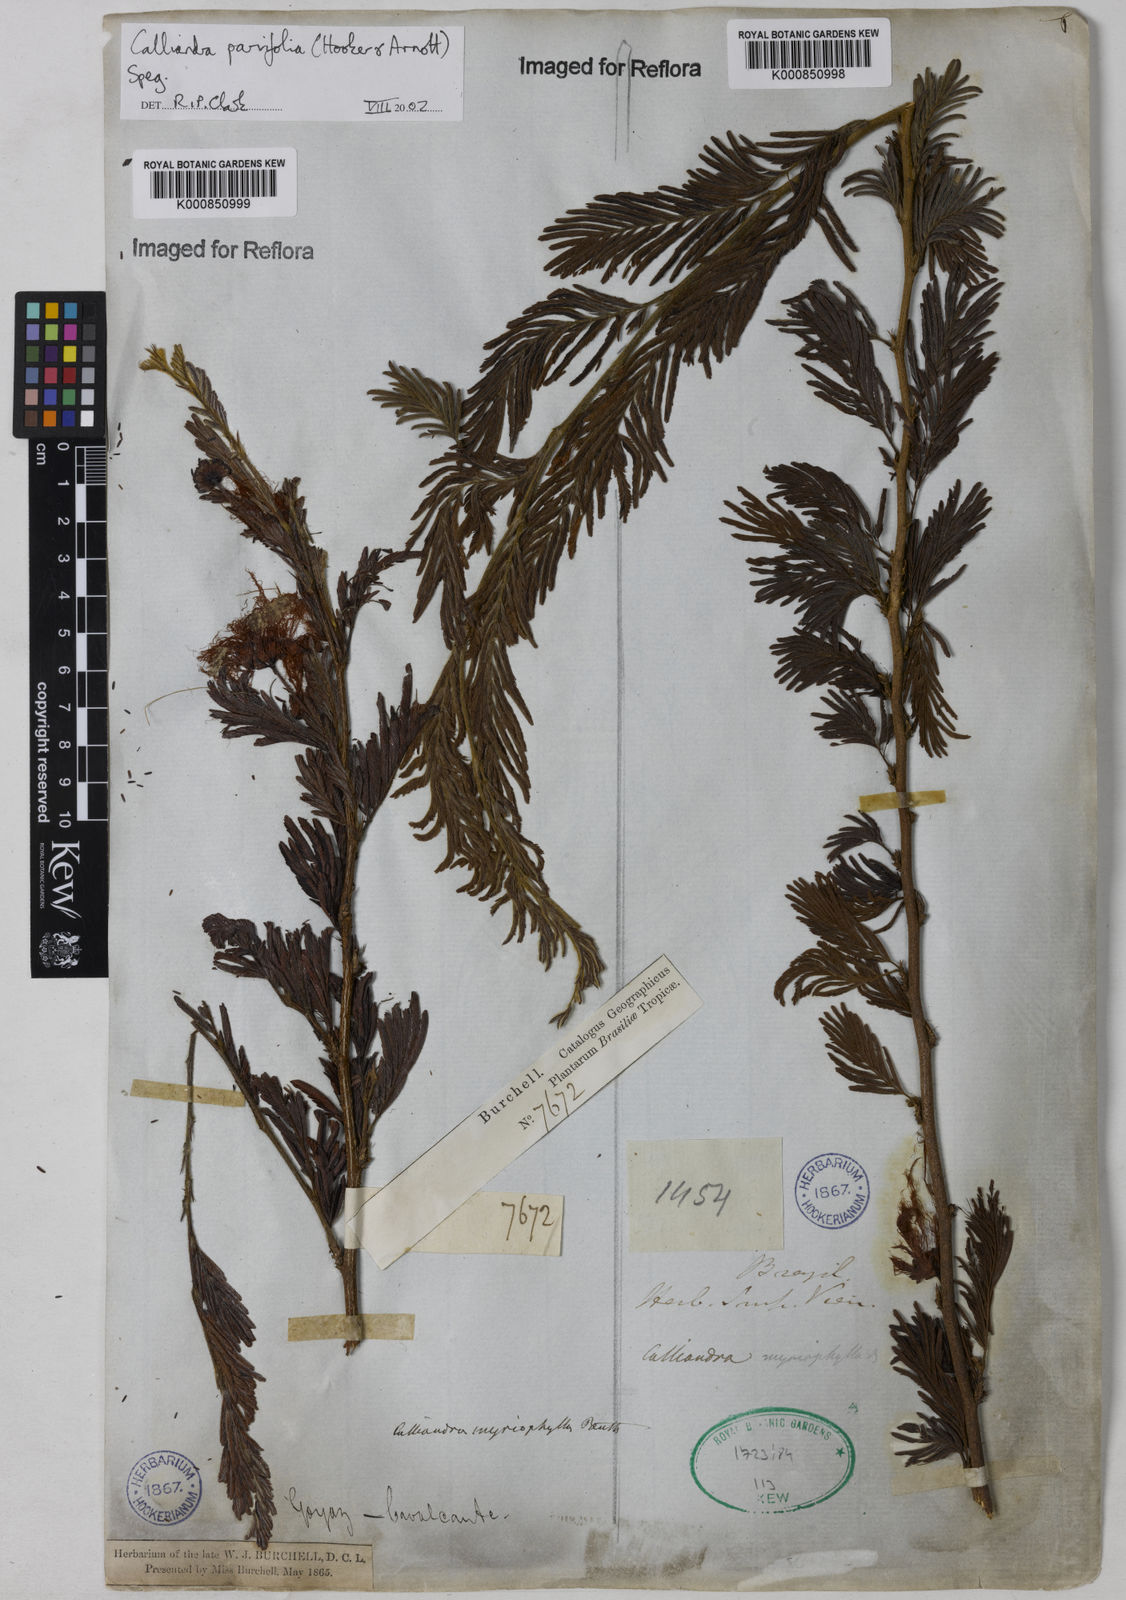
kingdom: Plantae
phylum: Tracheophyta
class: Magnoliopsida
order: Fabales
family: Fabaceae
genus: Calliandra
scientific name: Calliandra parvifolia
